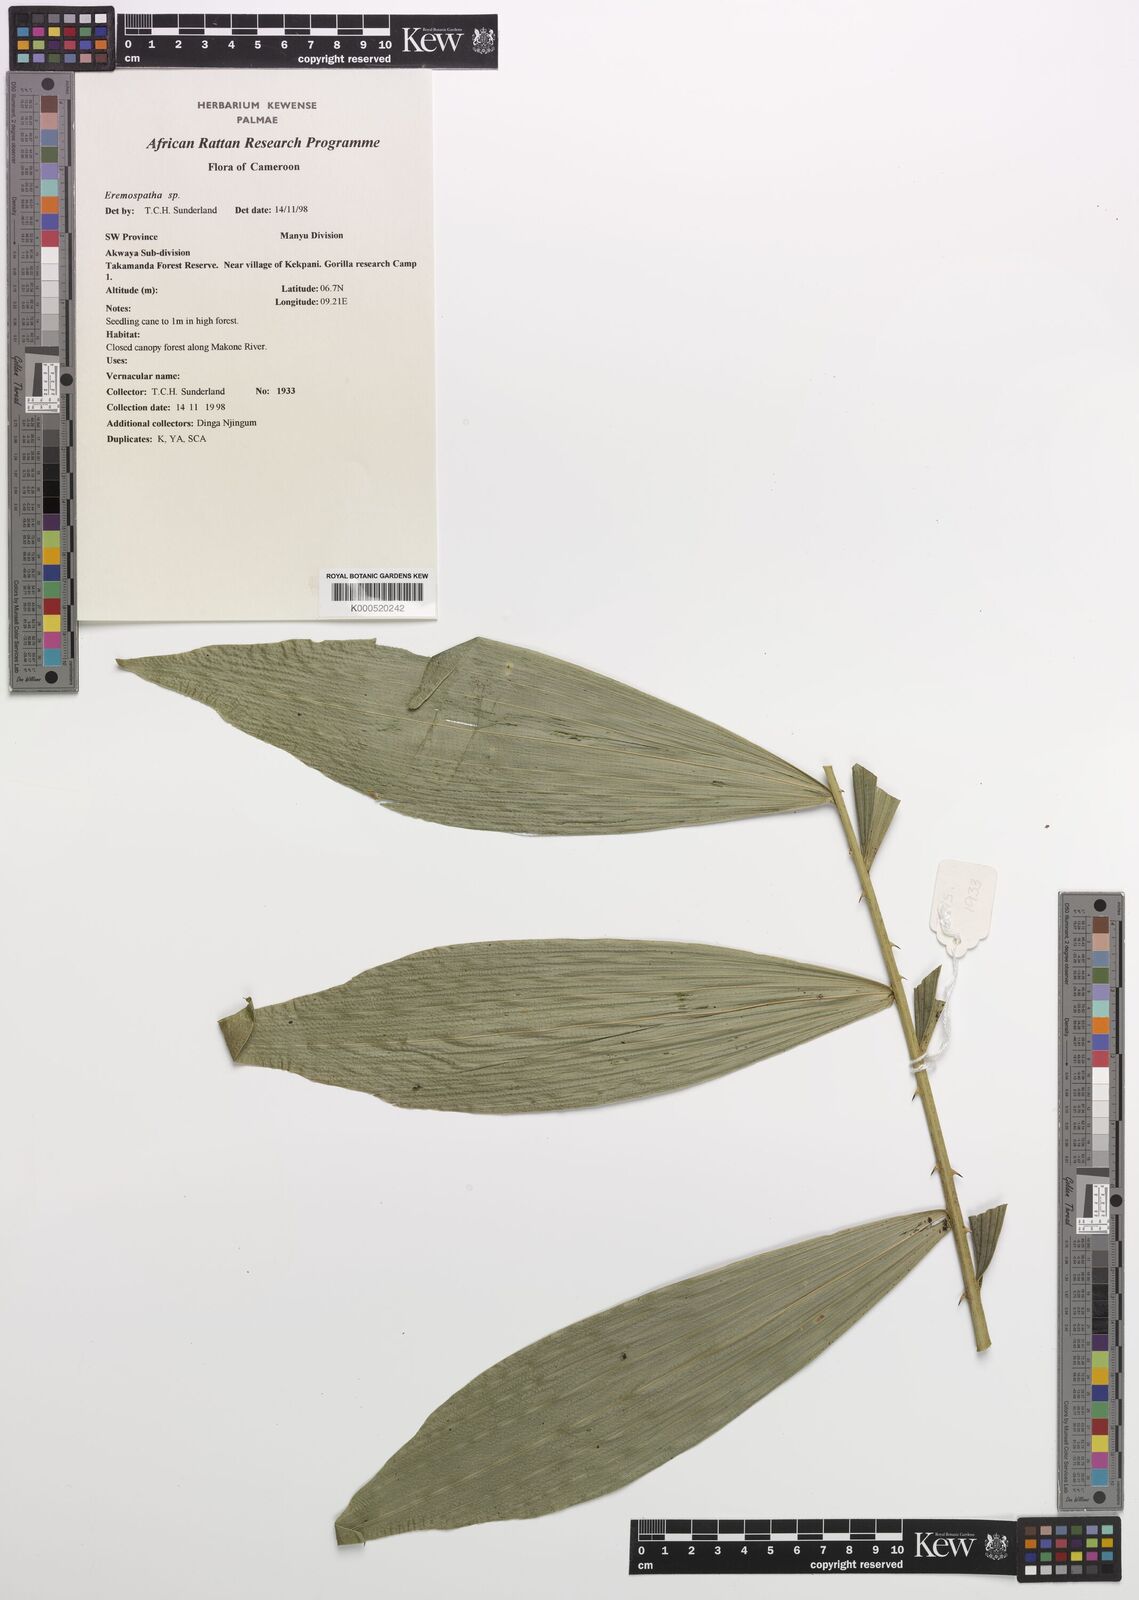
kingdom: Plantae
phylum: Tracheophyta
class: Liliopsida
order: Arecales
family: Arecaceae
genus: Eremospatha
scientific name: Eremospatha
